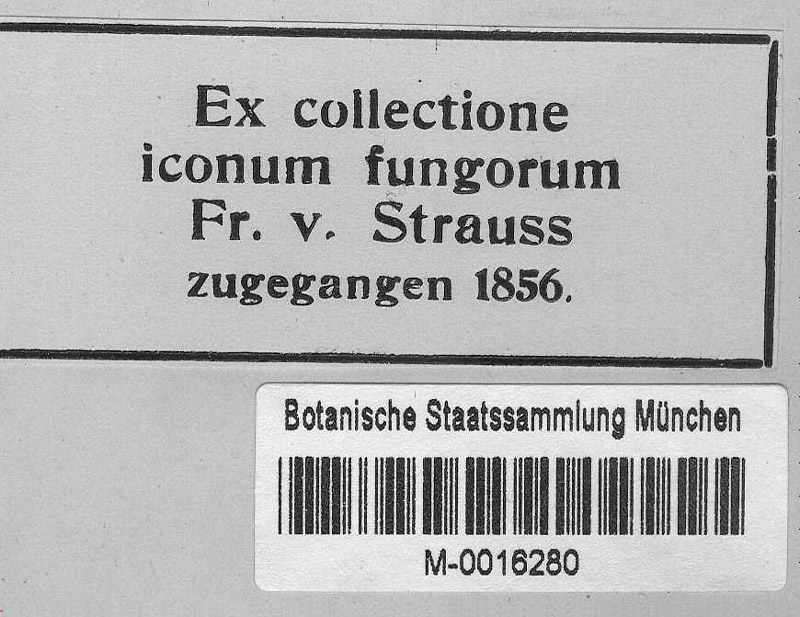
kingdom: Fungi
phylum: Ascomycota
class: Leotiomycetes
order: Helotiales
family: Erysiphaceae
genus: Erysiphe
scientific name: Erysiphe friesii
